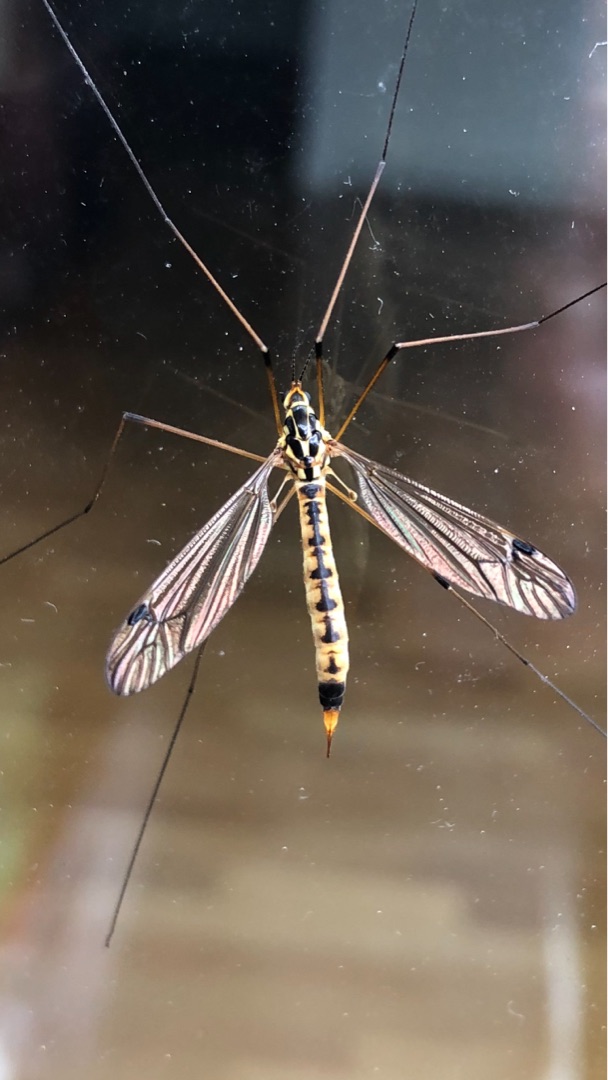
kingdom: Animalia
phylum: Arthropoda
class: Insecta
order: Diptera
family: Tipulidae
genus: Nephrotoma
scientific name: Nephrotoma analis
